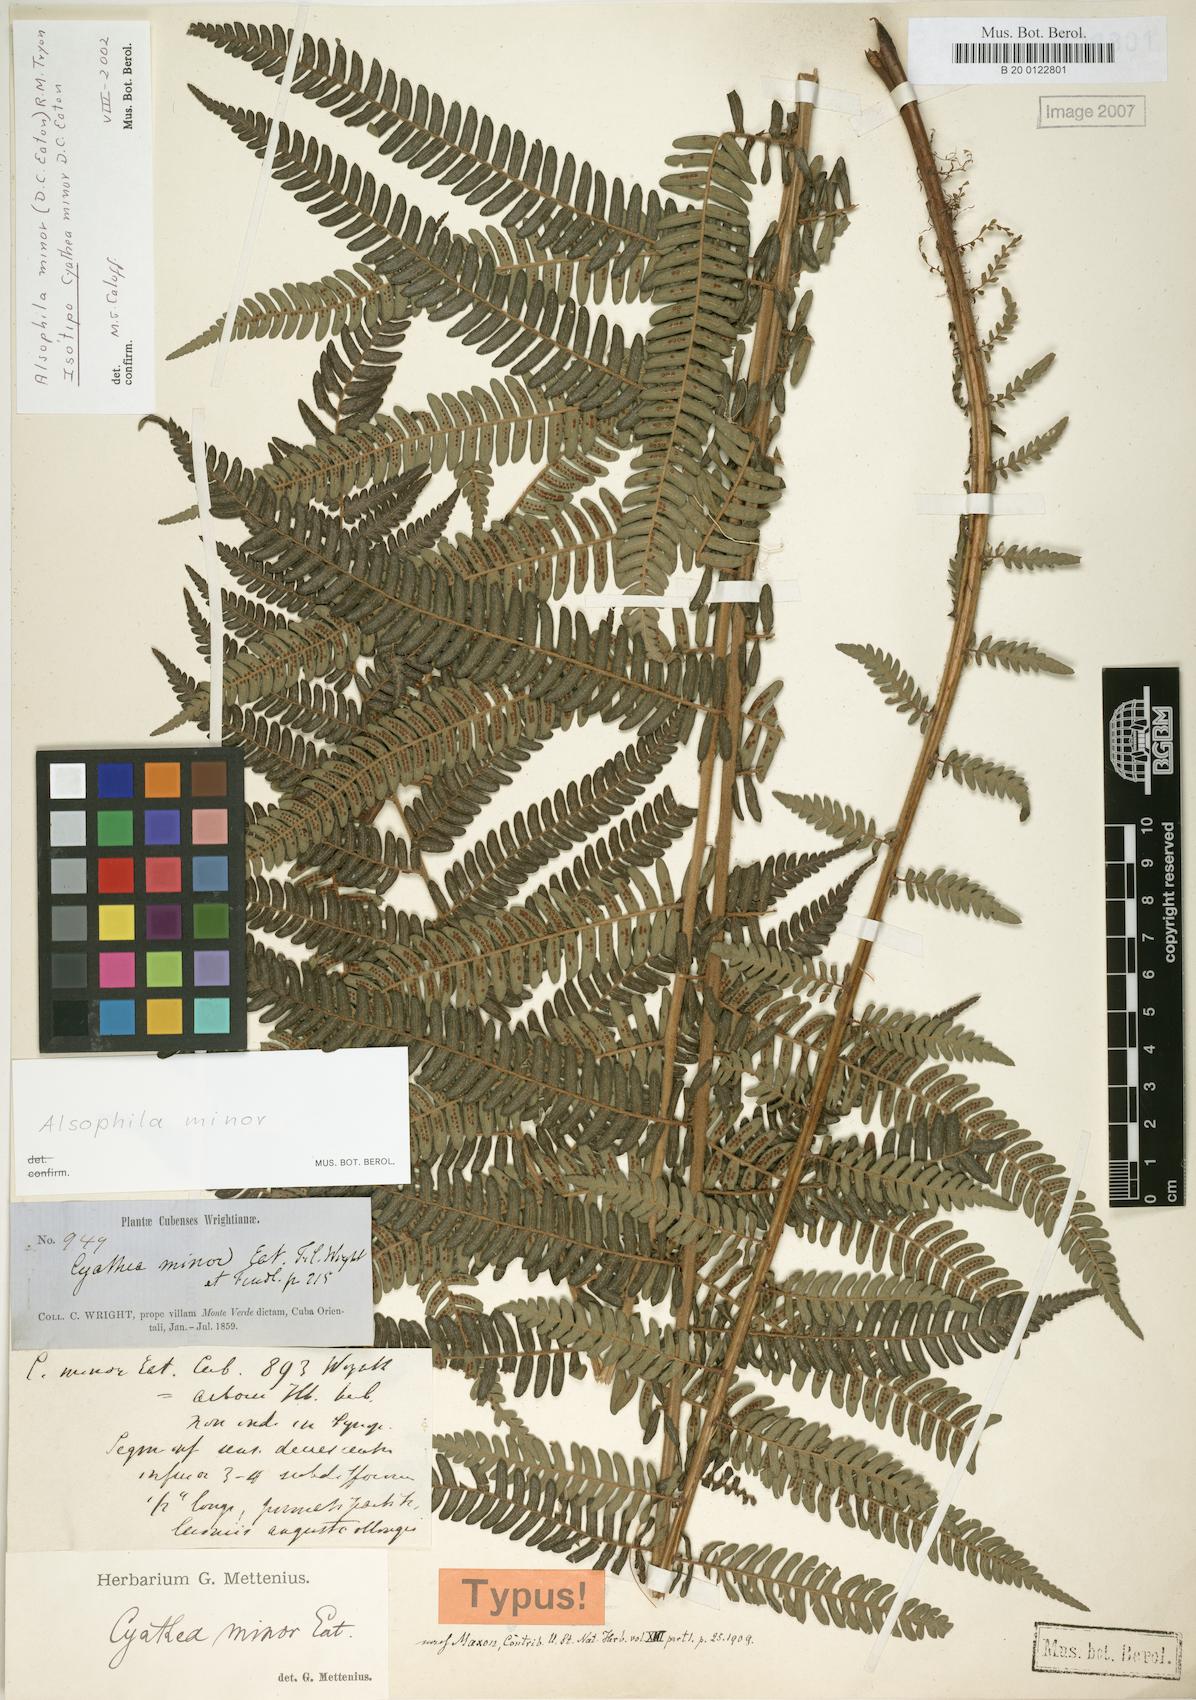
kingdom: Plantae
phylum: Tracheophyta
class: Polypodiopsida
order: Cyatheales
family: Cyatheaceae
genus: Alsophila
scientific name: Alsophila minor
